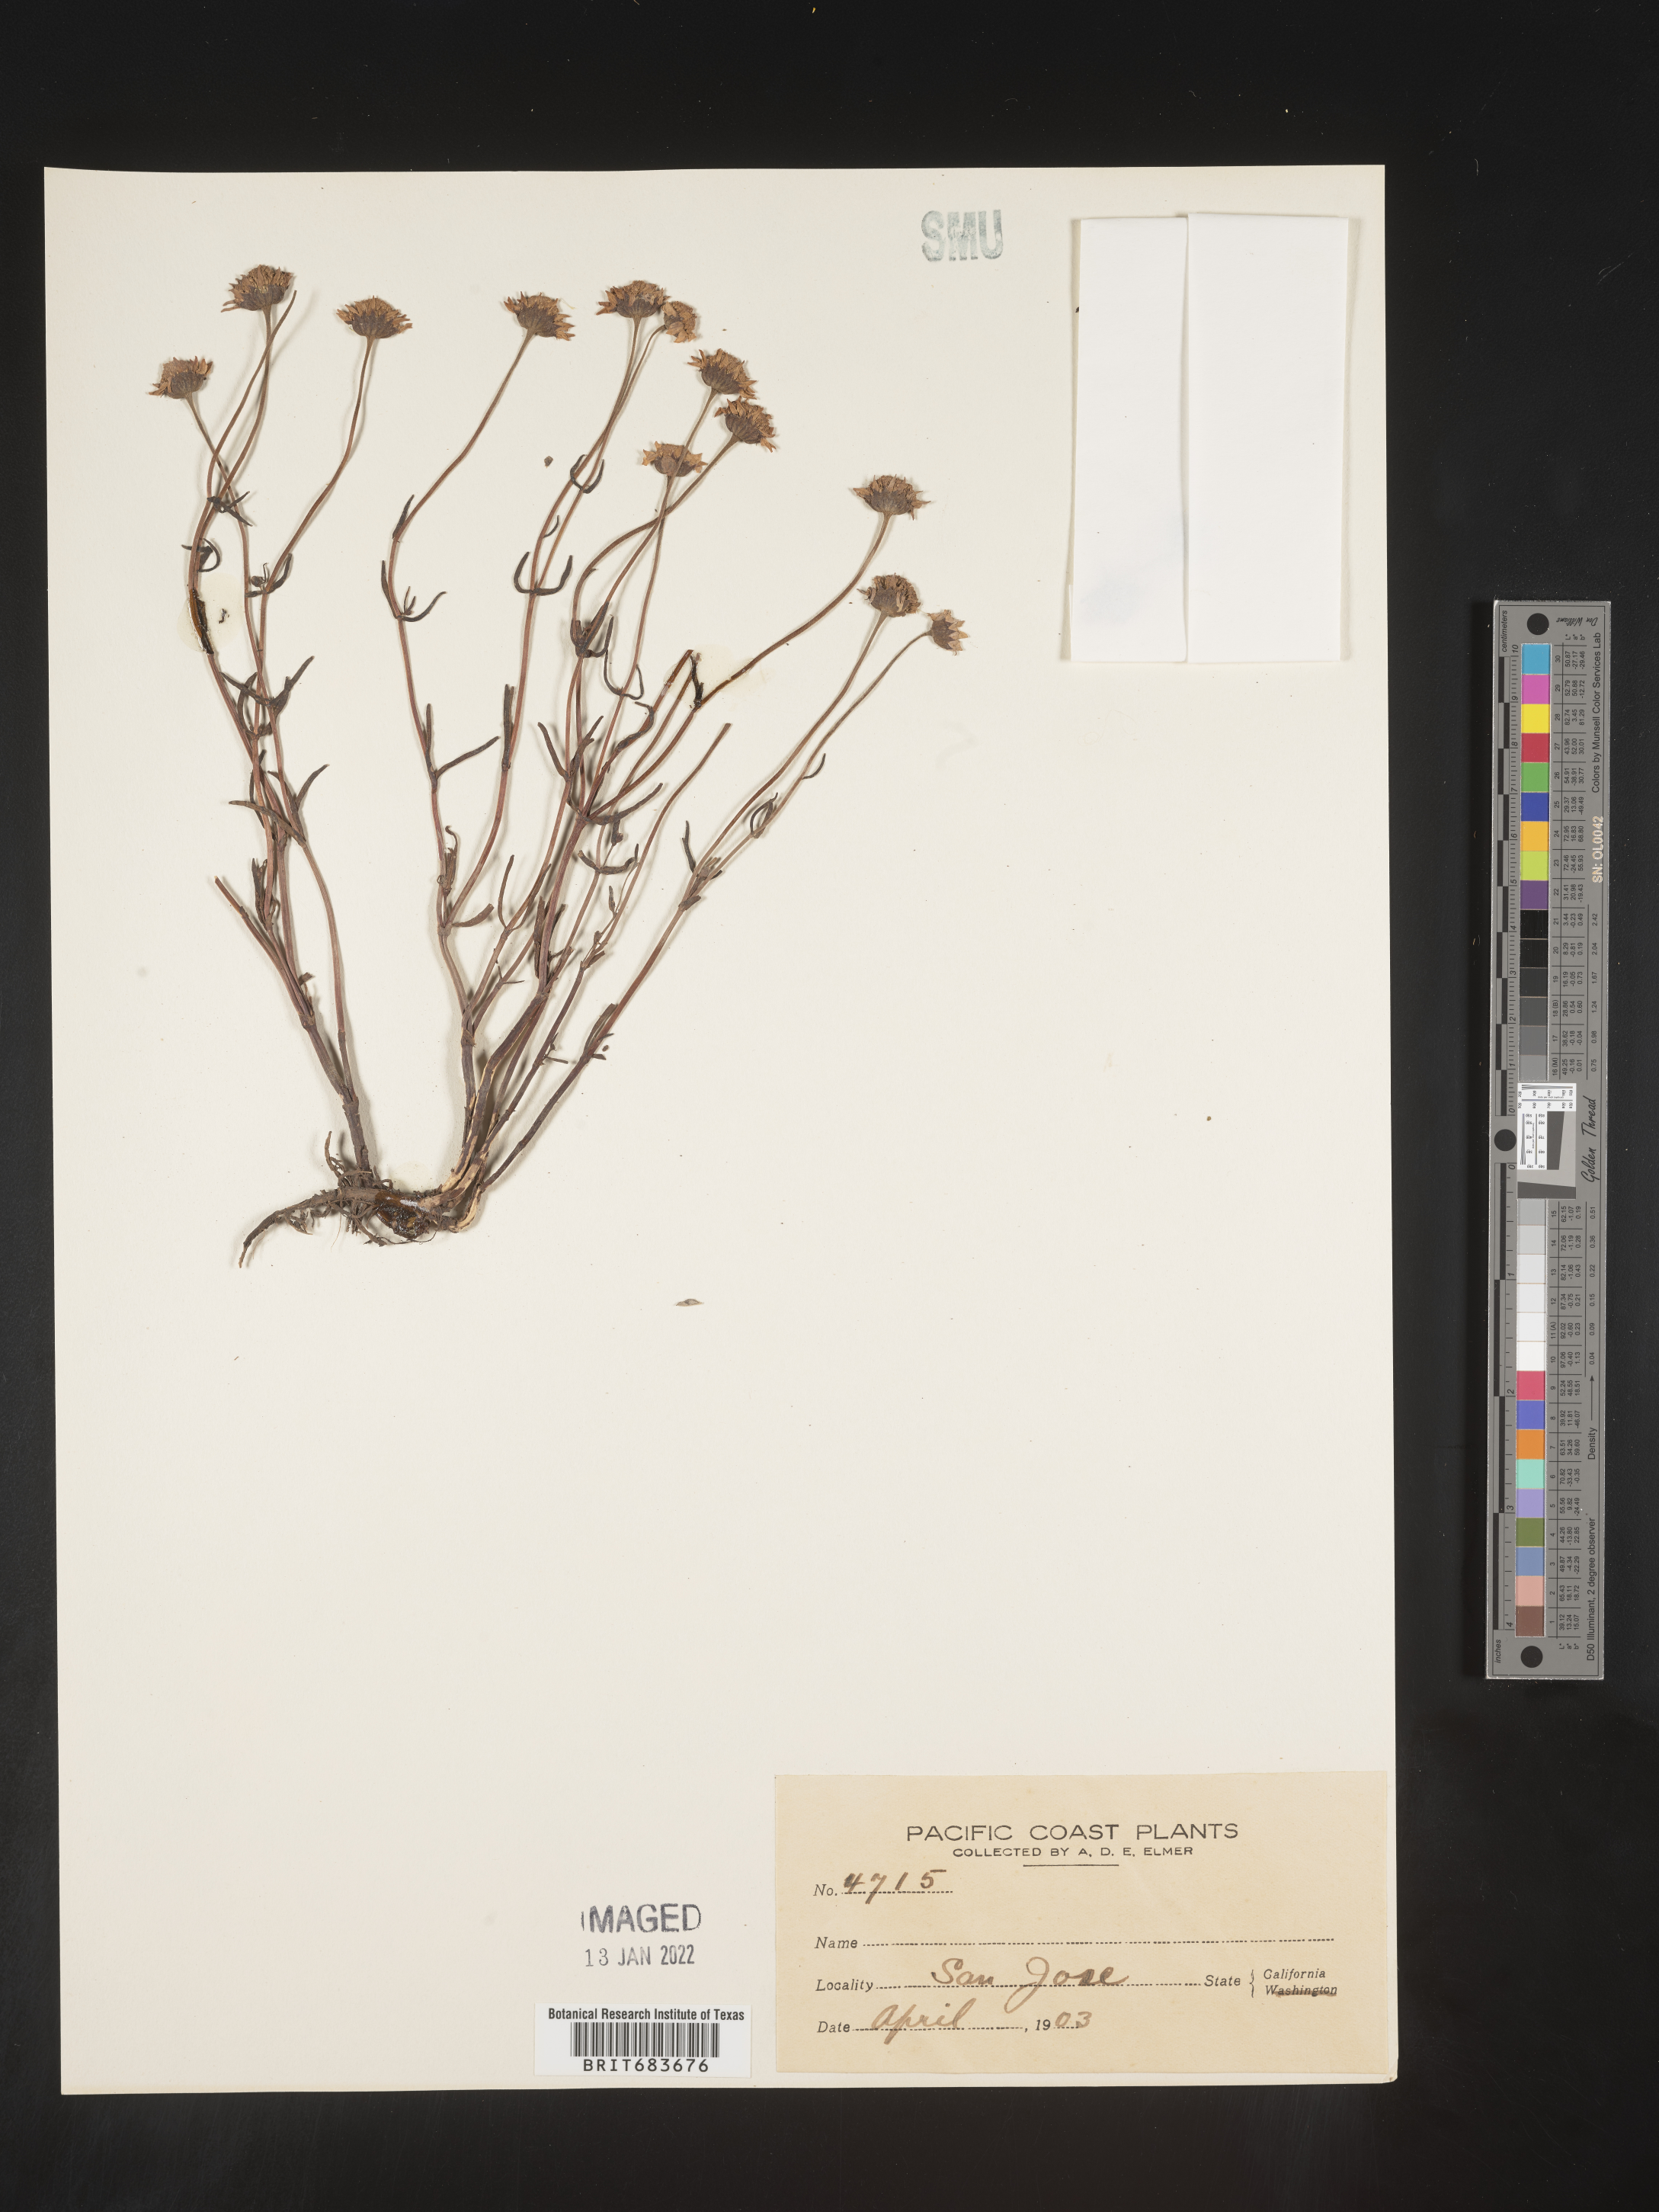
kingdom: Plantae
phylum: Tracheophyta
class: Magnoliopsida
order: Asterales
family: Asteraceae
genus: Lasthenia
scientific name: Lasthenia
